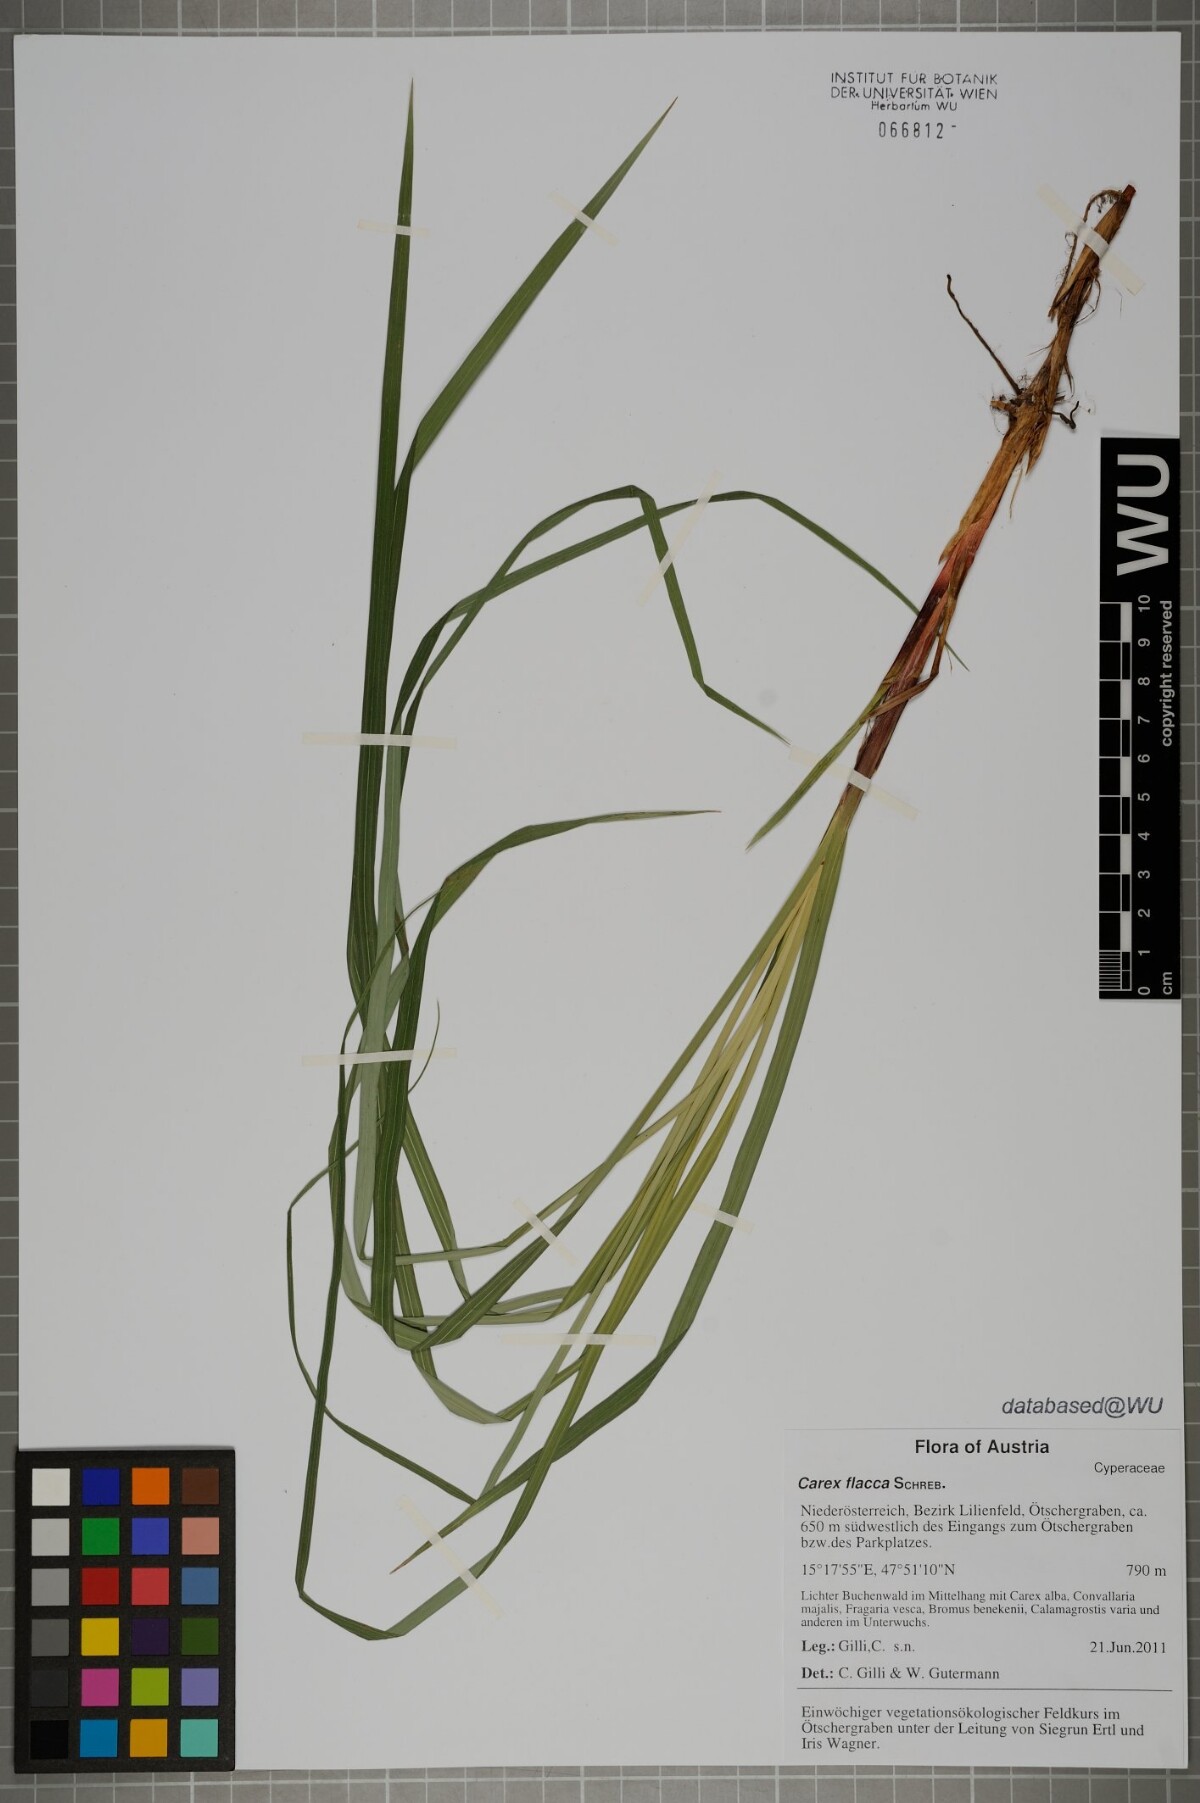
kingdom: Plantae
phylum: Tracheophyta
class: Liliopsida
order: Poales
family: Cyperaceae
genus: Carex
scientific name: Carex flacca
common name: Glaucous sedge
